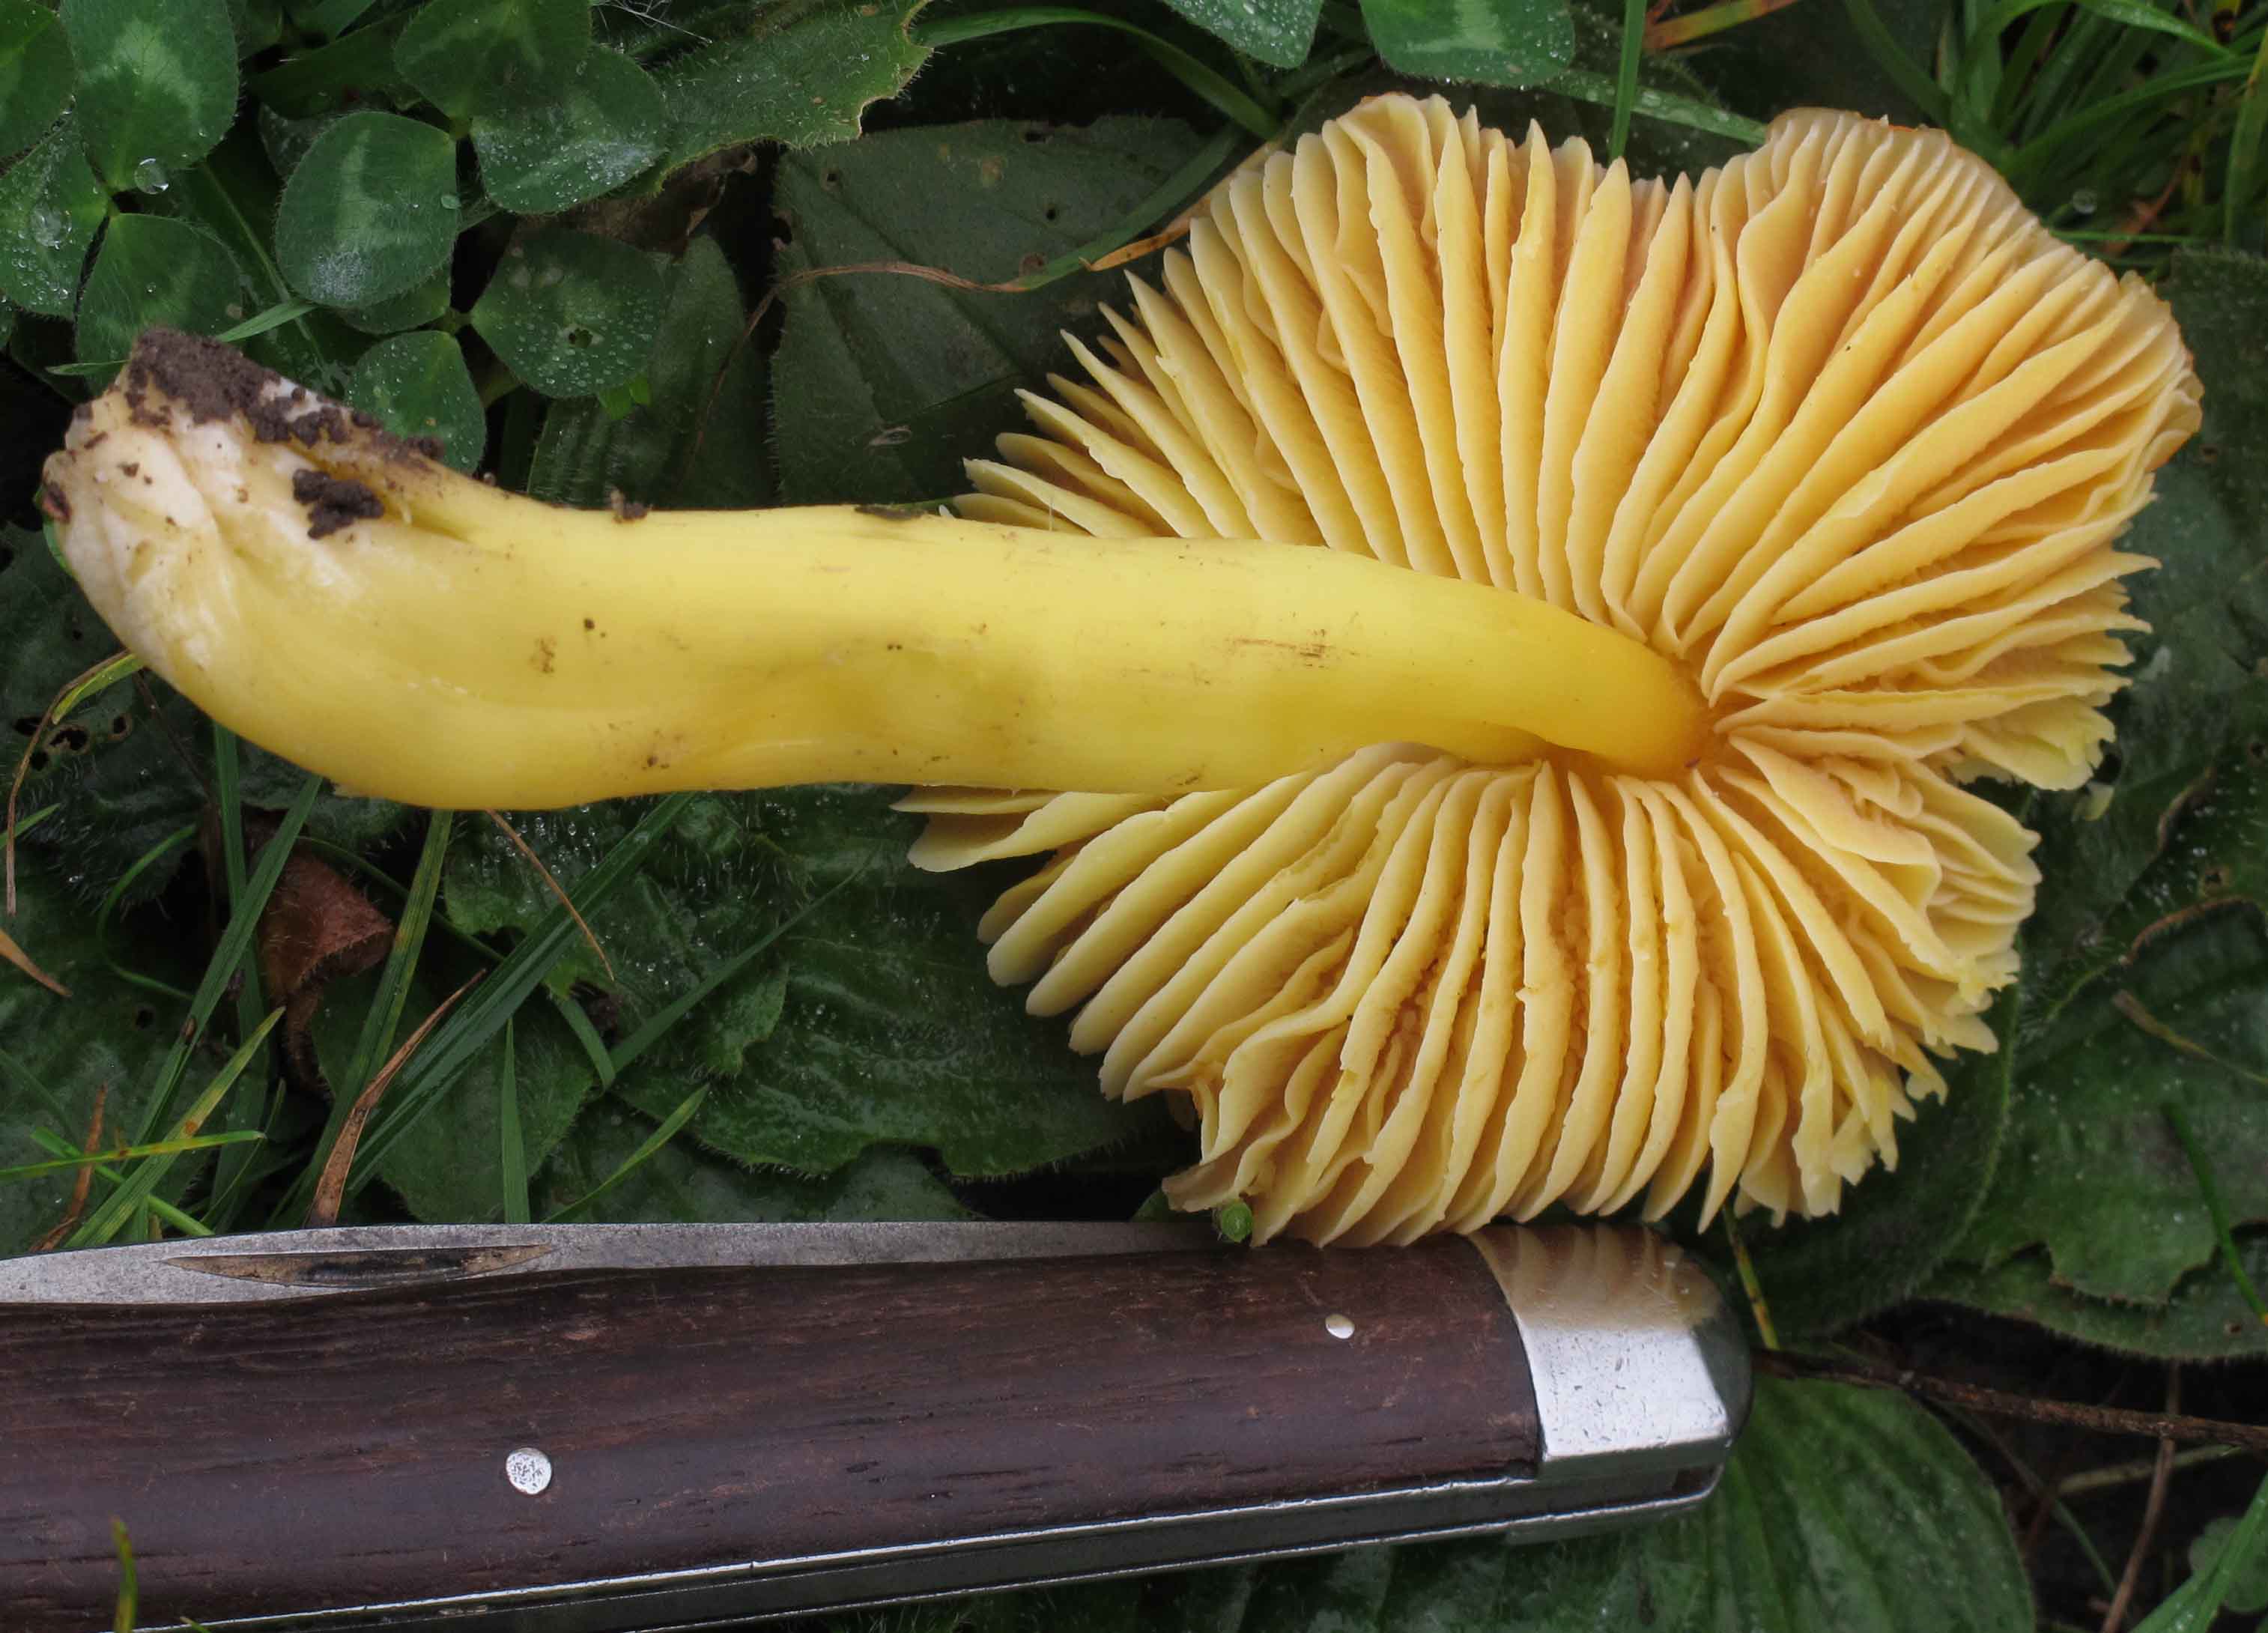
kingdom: Fungi
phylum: Basidiomycota
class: Agaricomycetes
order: Agaricales
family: Hygrophoraceae
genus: Hygrocybe
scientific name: Hygrocybe aurantiosplendens
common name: orangegylden vokshat
